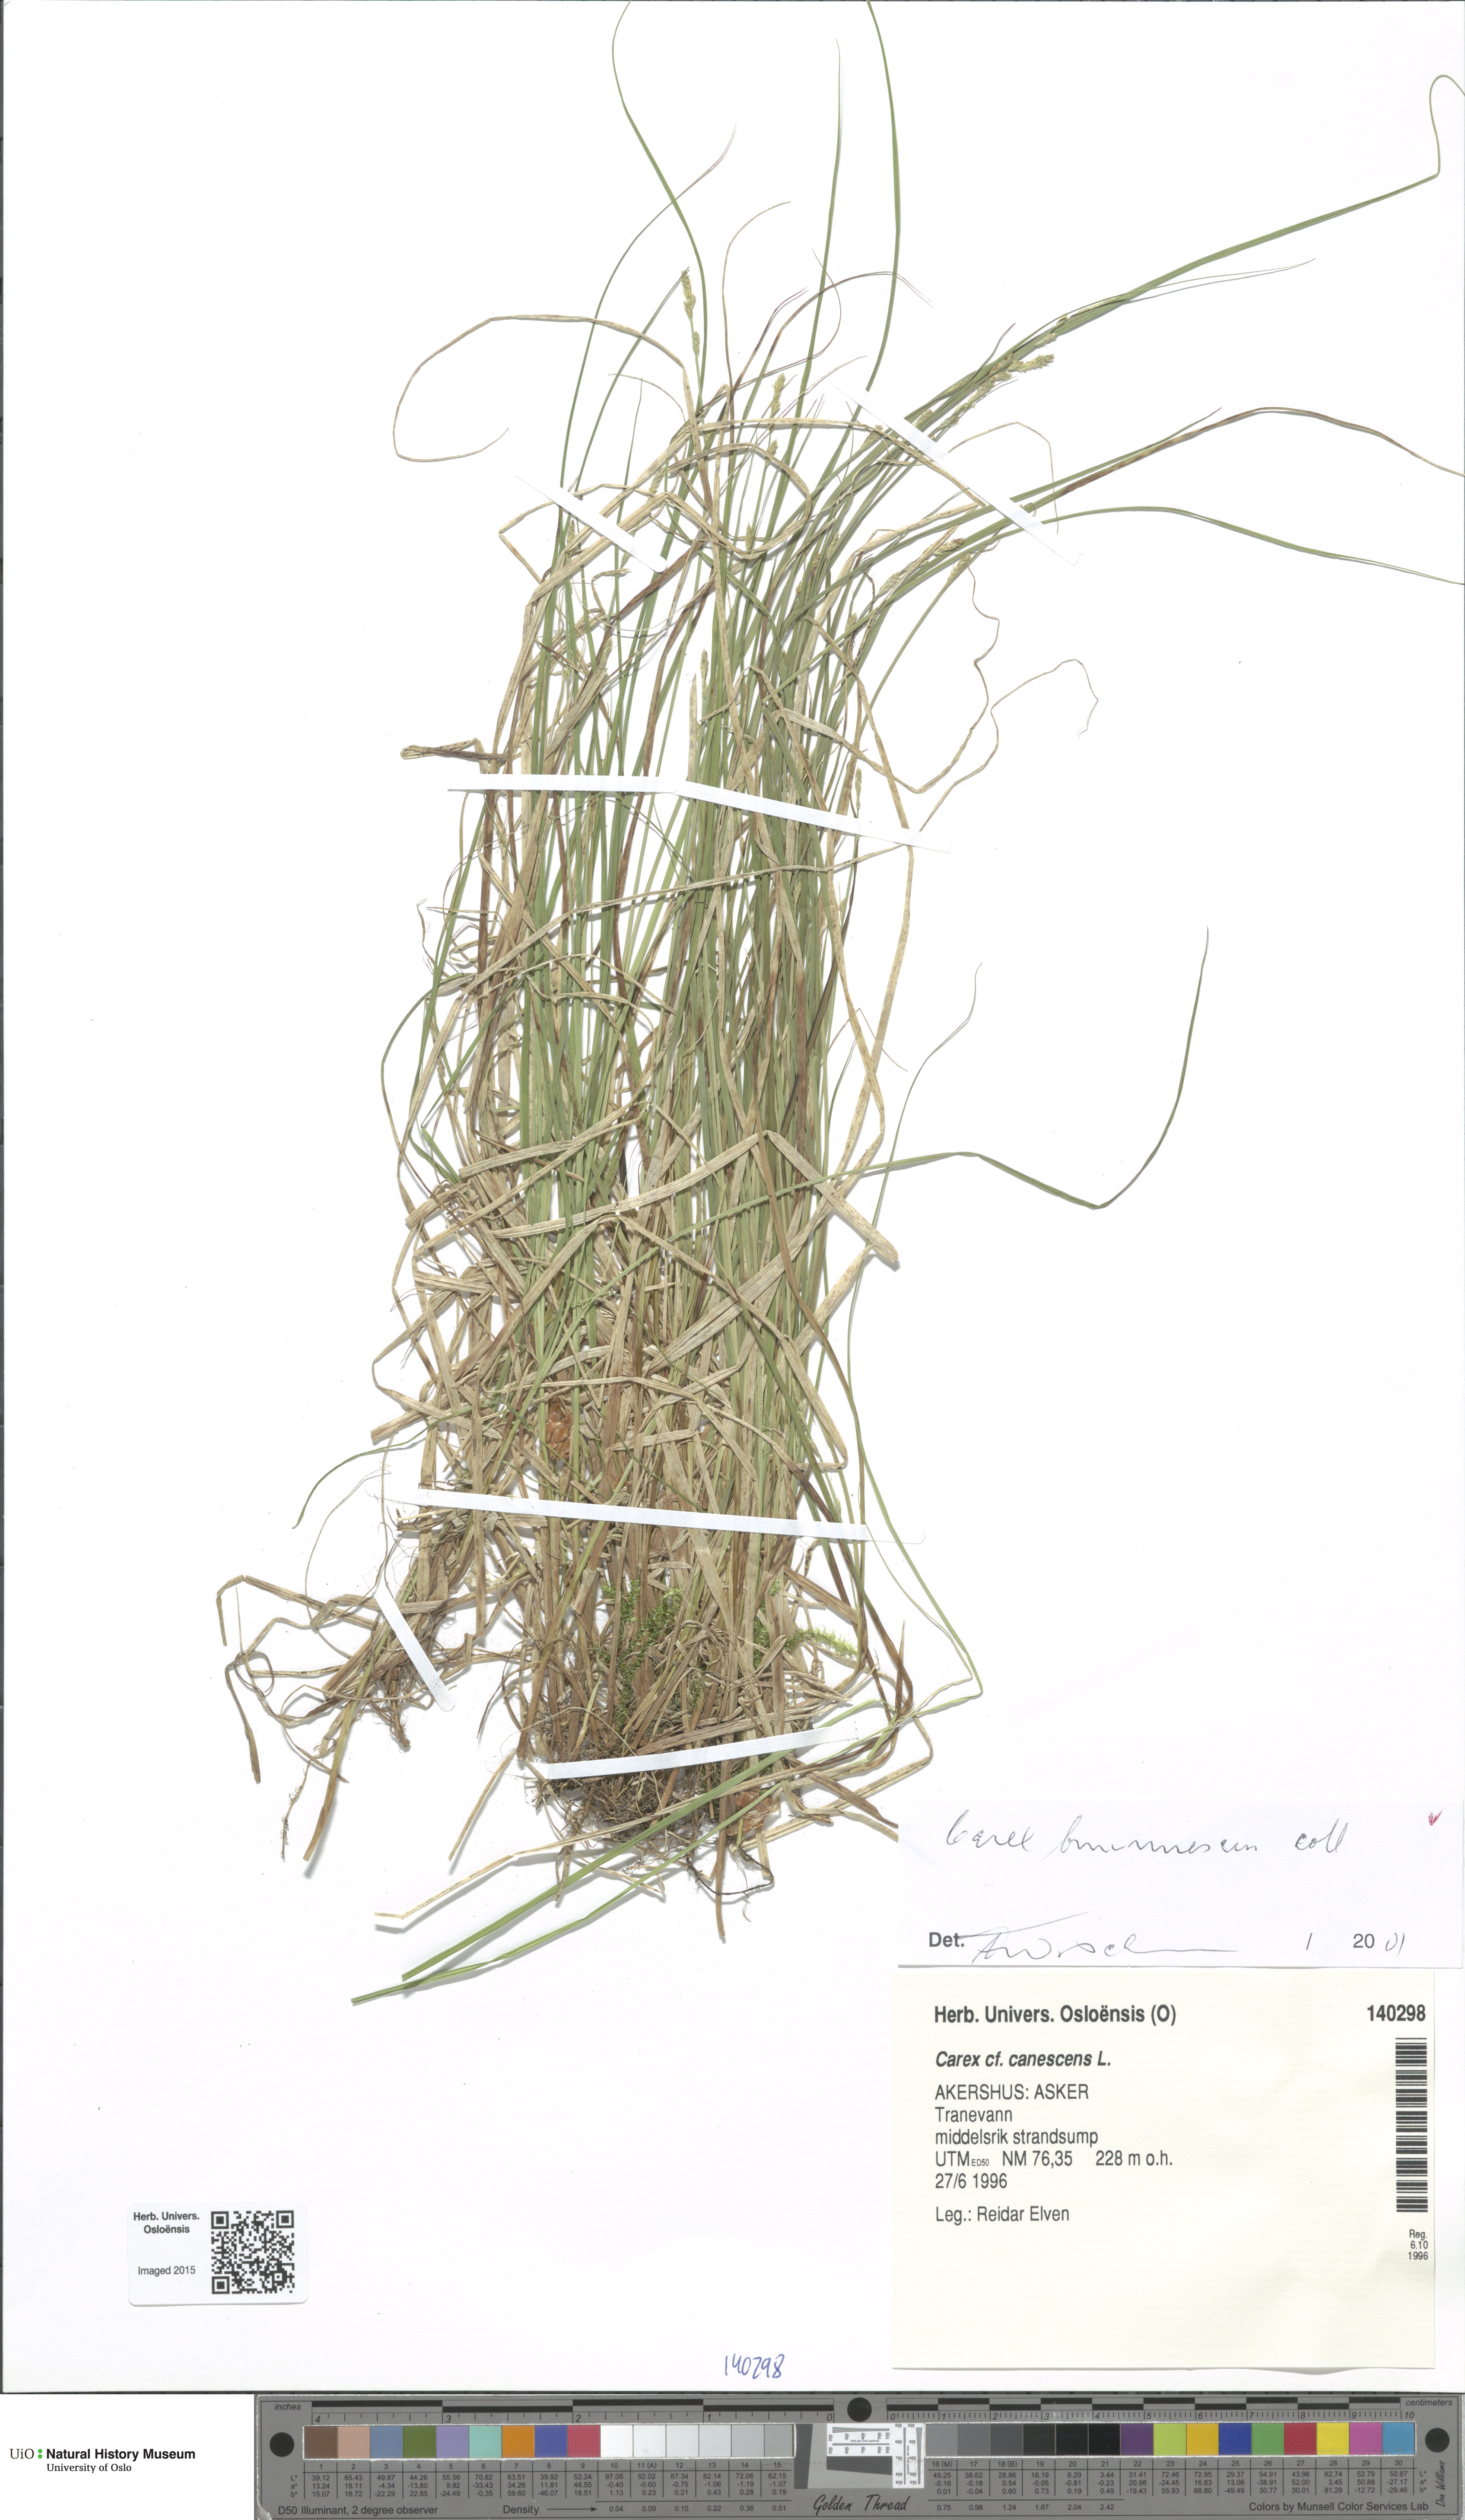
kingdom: Plantae
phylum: Tracheophyta
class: Liliopsida
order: Poales
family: Cyperaceae
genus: Carex
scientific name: Carex hostiana
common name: Tawny sedge
